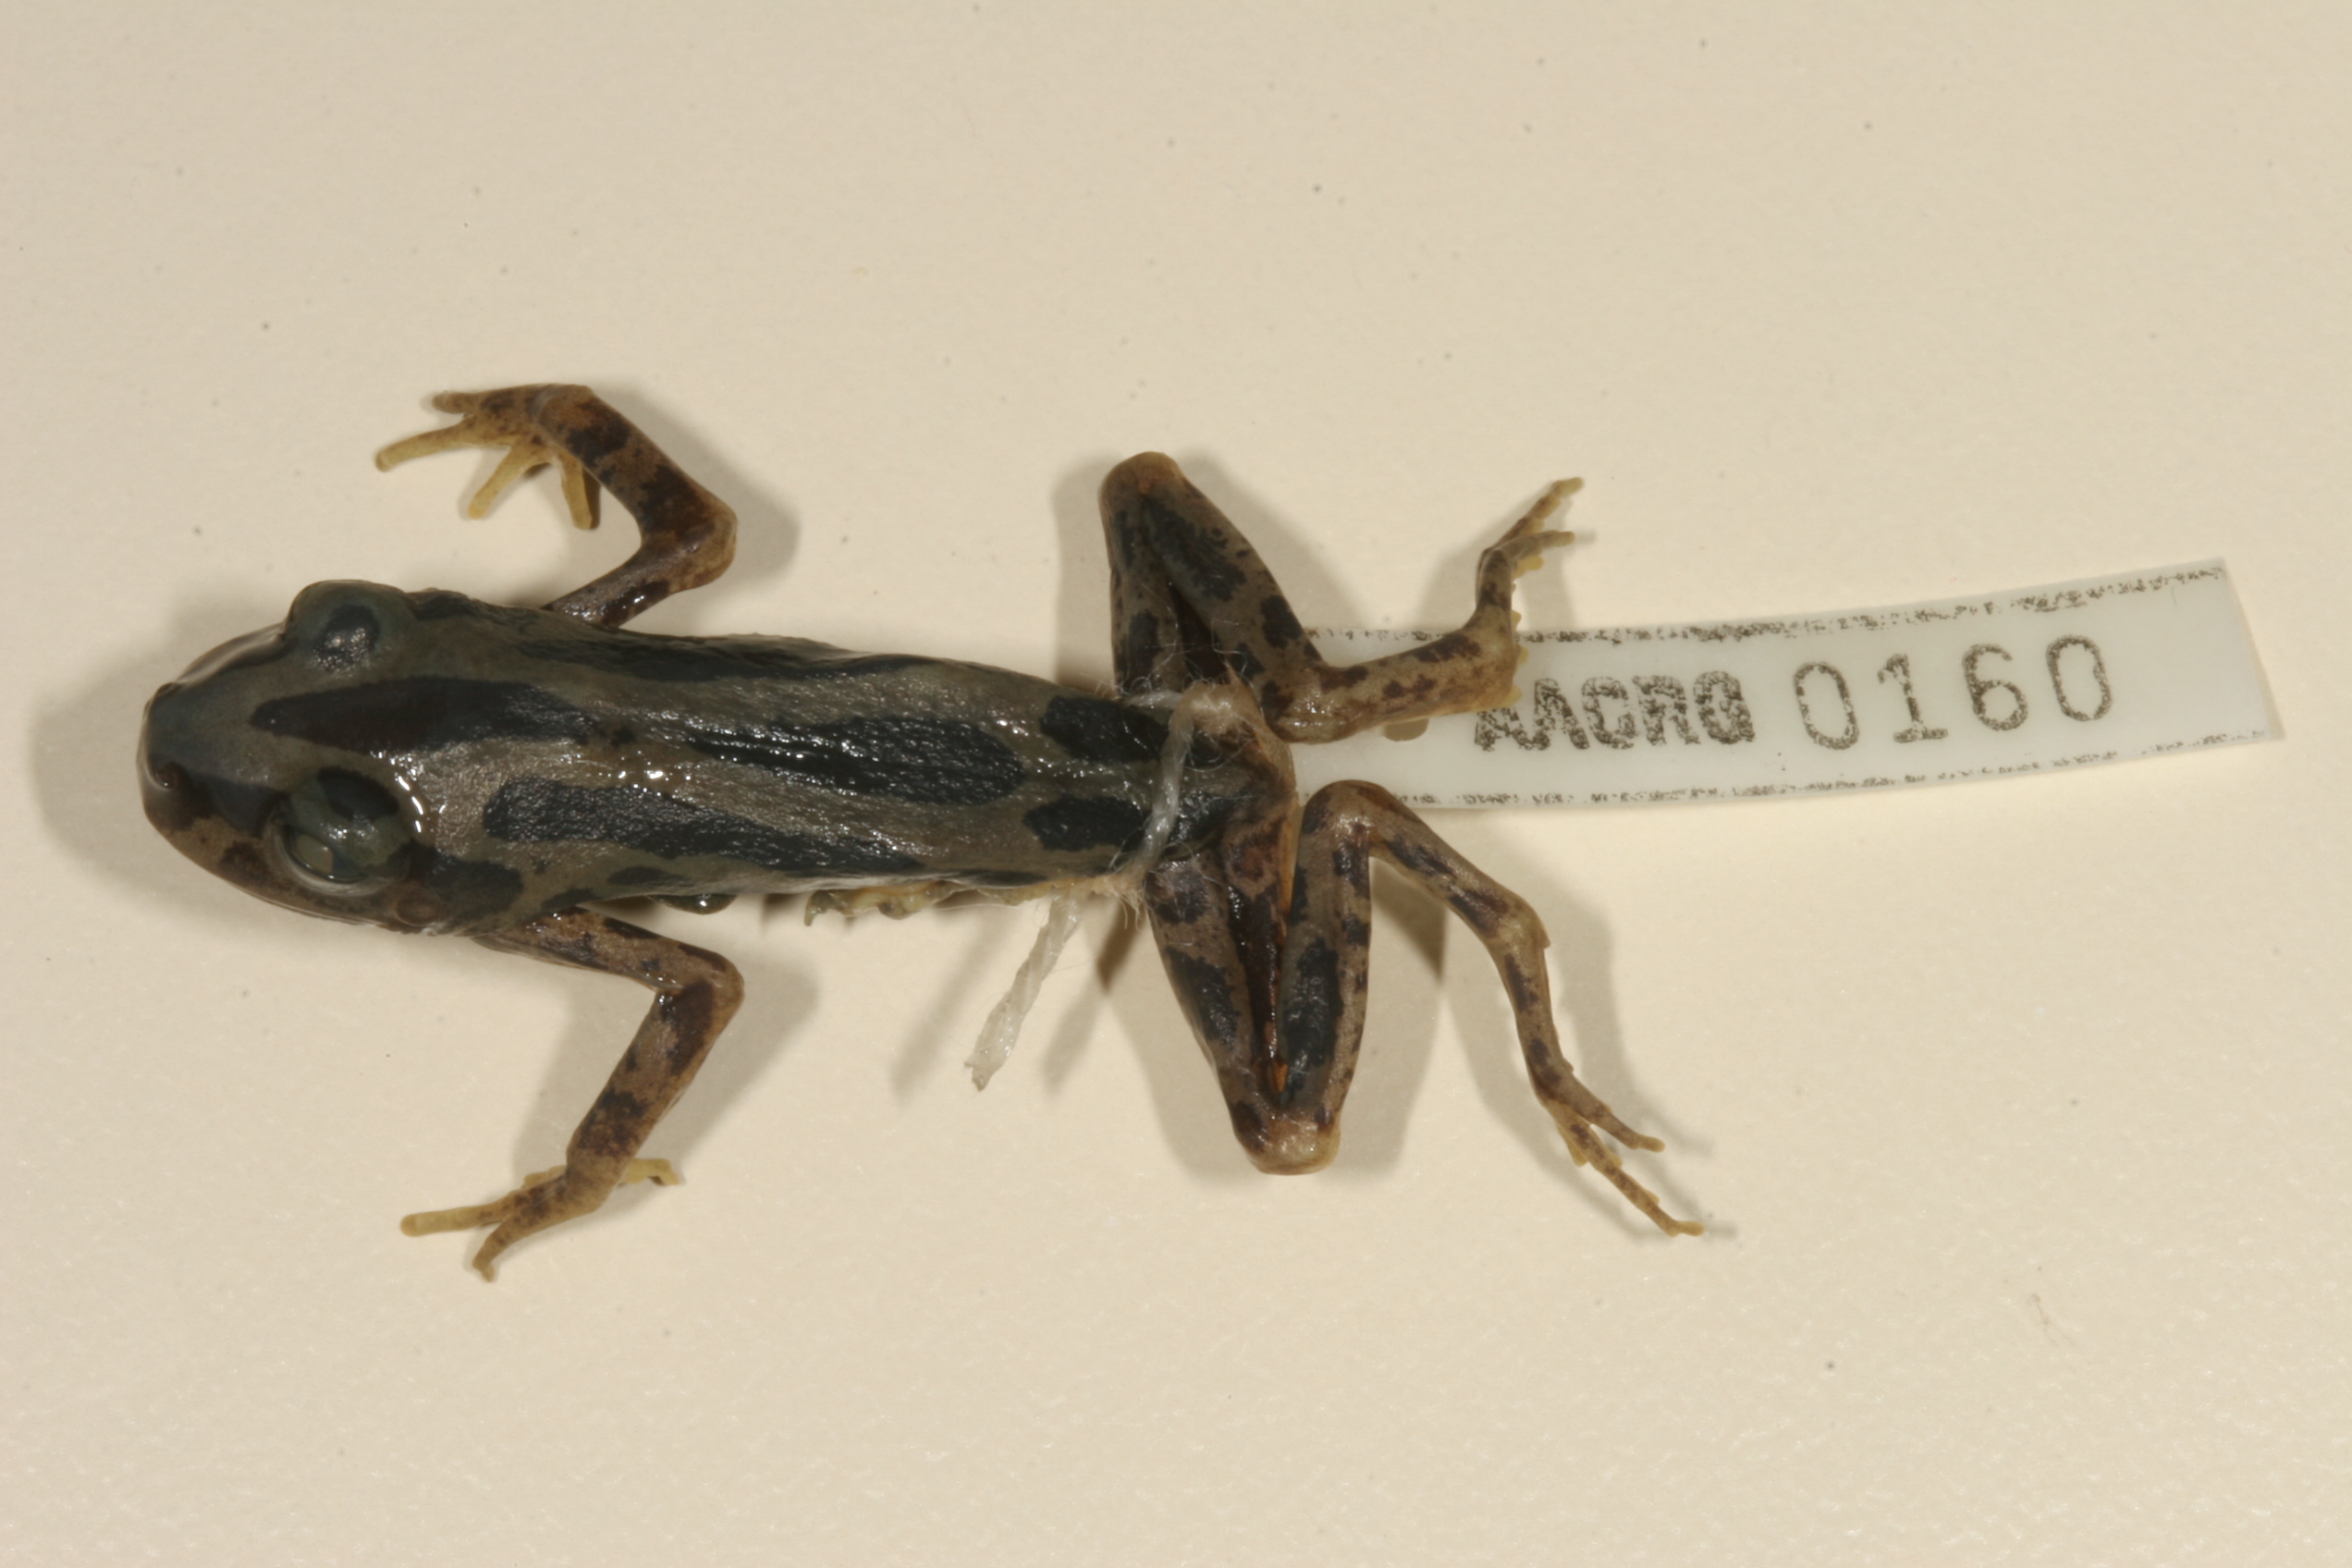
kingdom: Animalia
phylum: Chordata
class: Amphibia
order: Anura
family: Hyperoliidae
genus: Kassina
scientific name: Kassina senegalensis
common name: Senegal land frog
